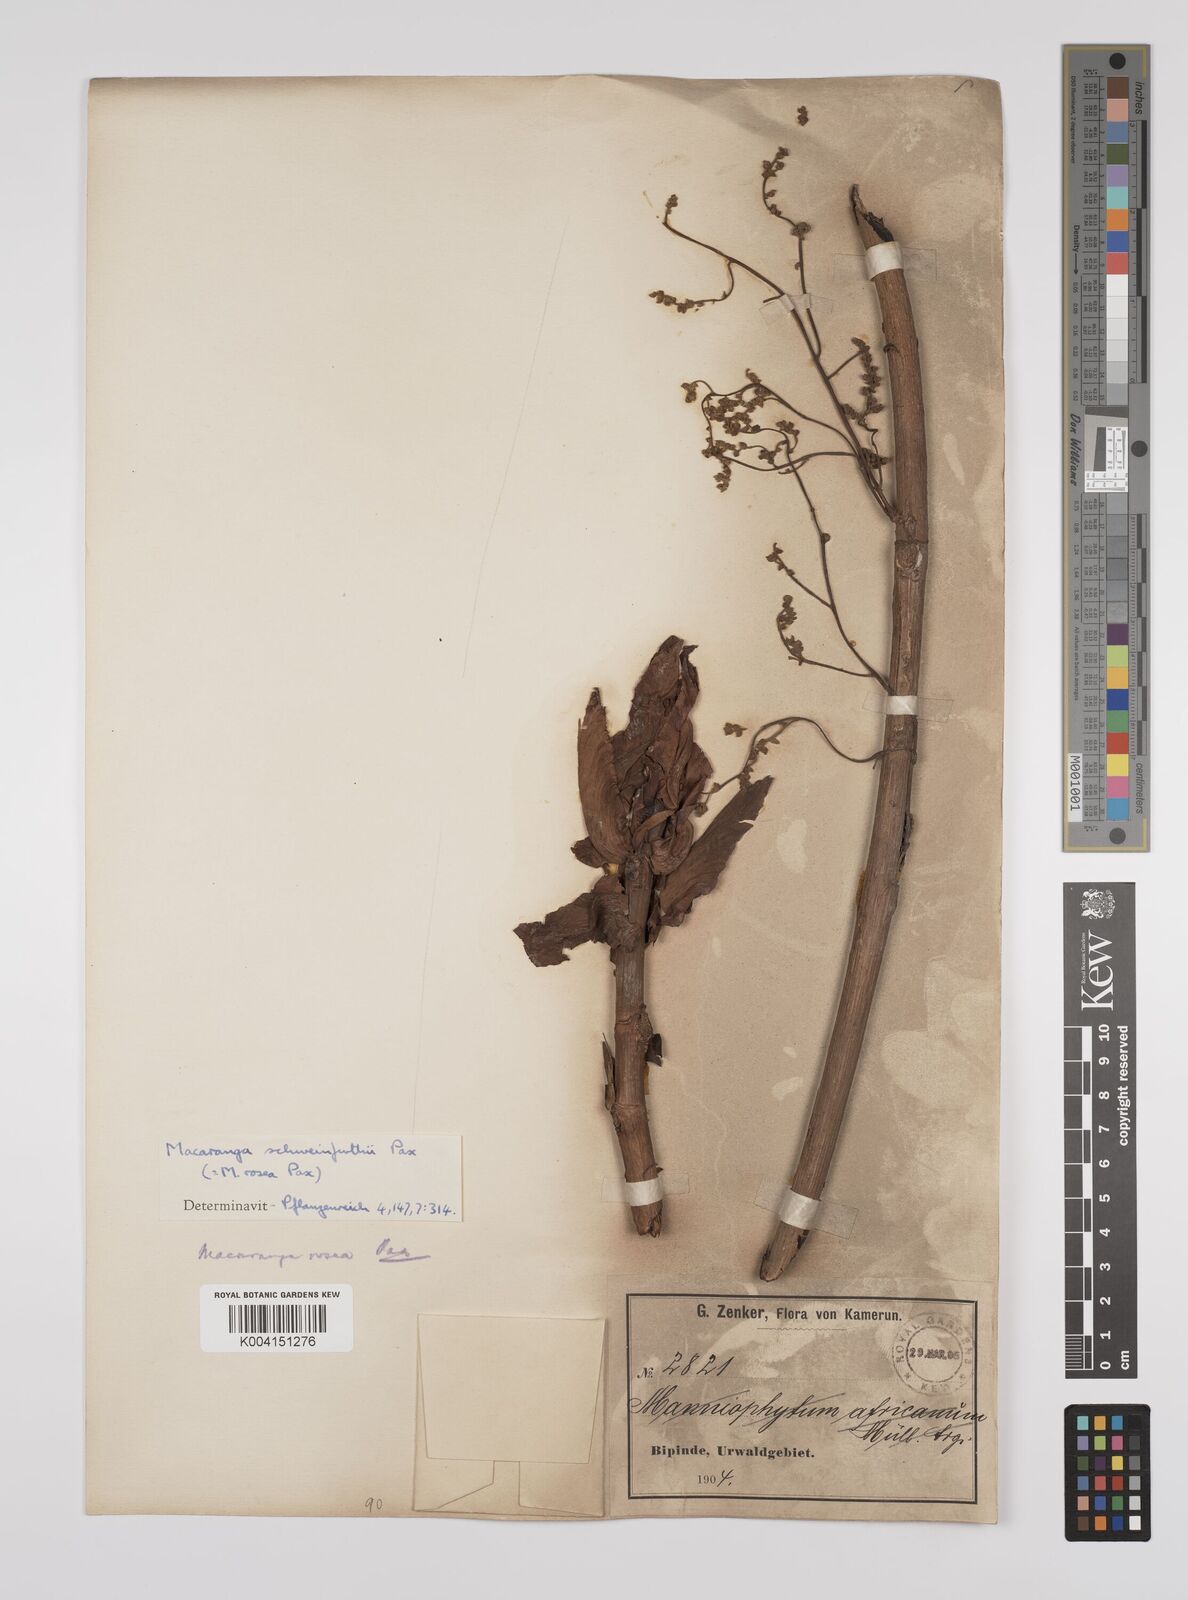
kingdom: Plantae
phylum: Tracheophyta
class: Magnoliopsida
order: Malpighiales
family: Euphorbiaceae
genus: Macaranga
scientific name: Macaranga schweinfurthii
